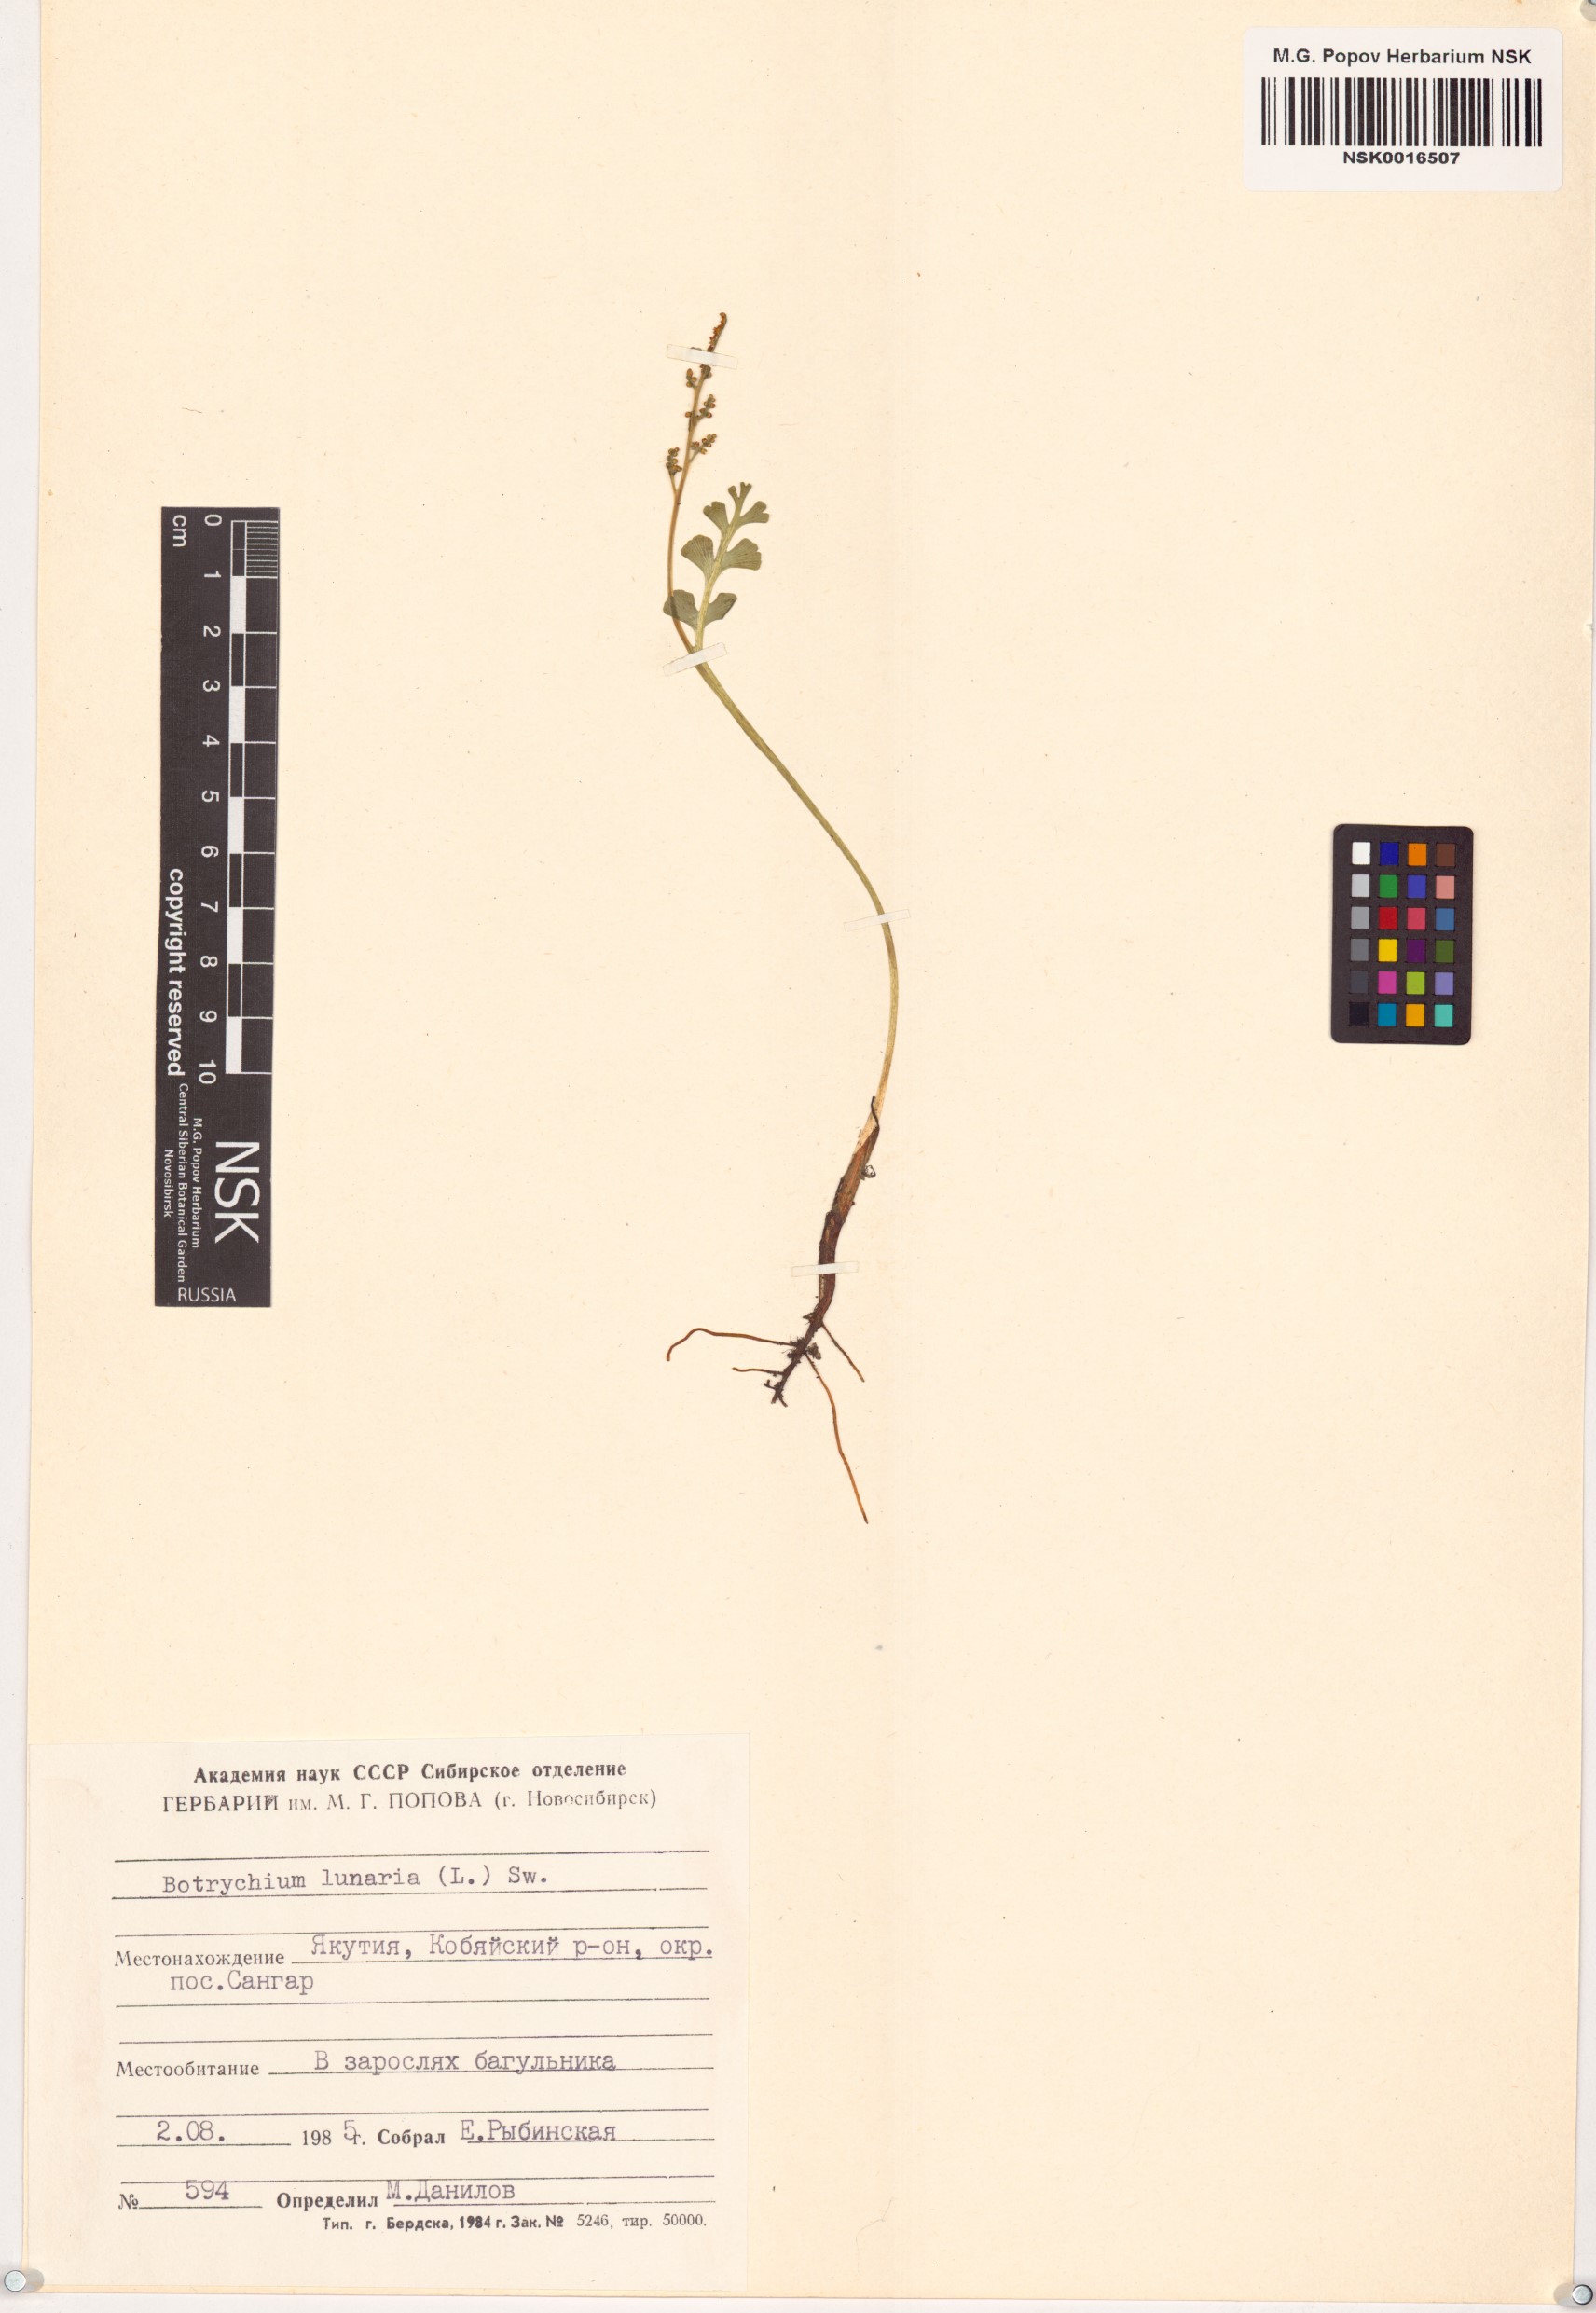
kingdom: Plantae
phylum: Tracheophyta
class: Polypodiopsida
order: Ophioglossales
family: Ophioglossaceae
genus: Botrychium
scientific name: Botrychium lunaria
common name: Moonwort
